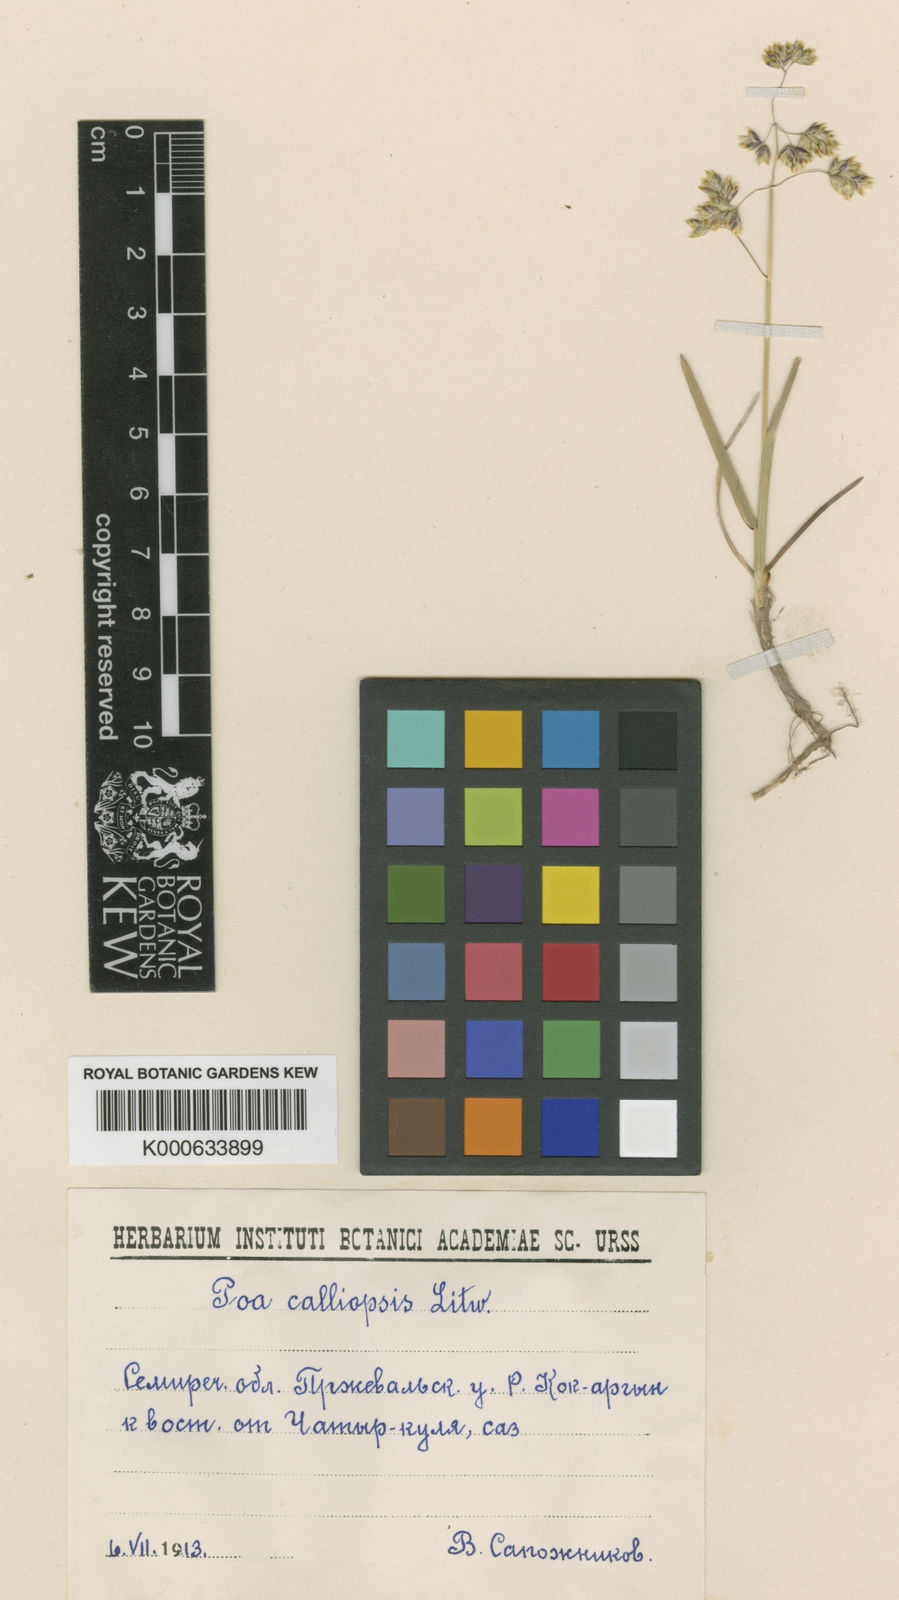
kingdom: Plantae
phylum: Tracheophyta
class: Liliopsida
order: Poales
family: Poaceae
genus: Poa
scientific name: Poa calliopsis
